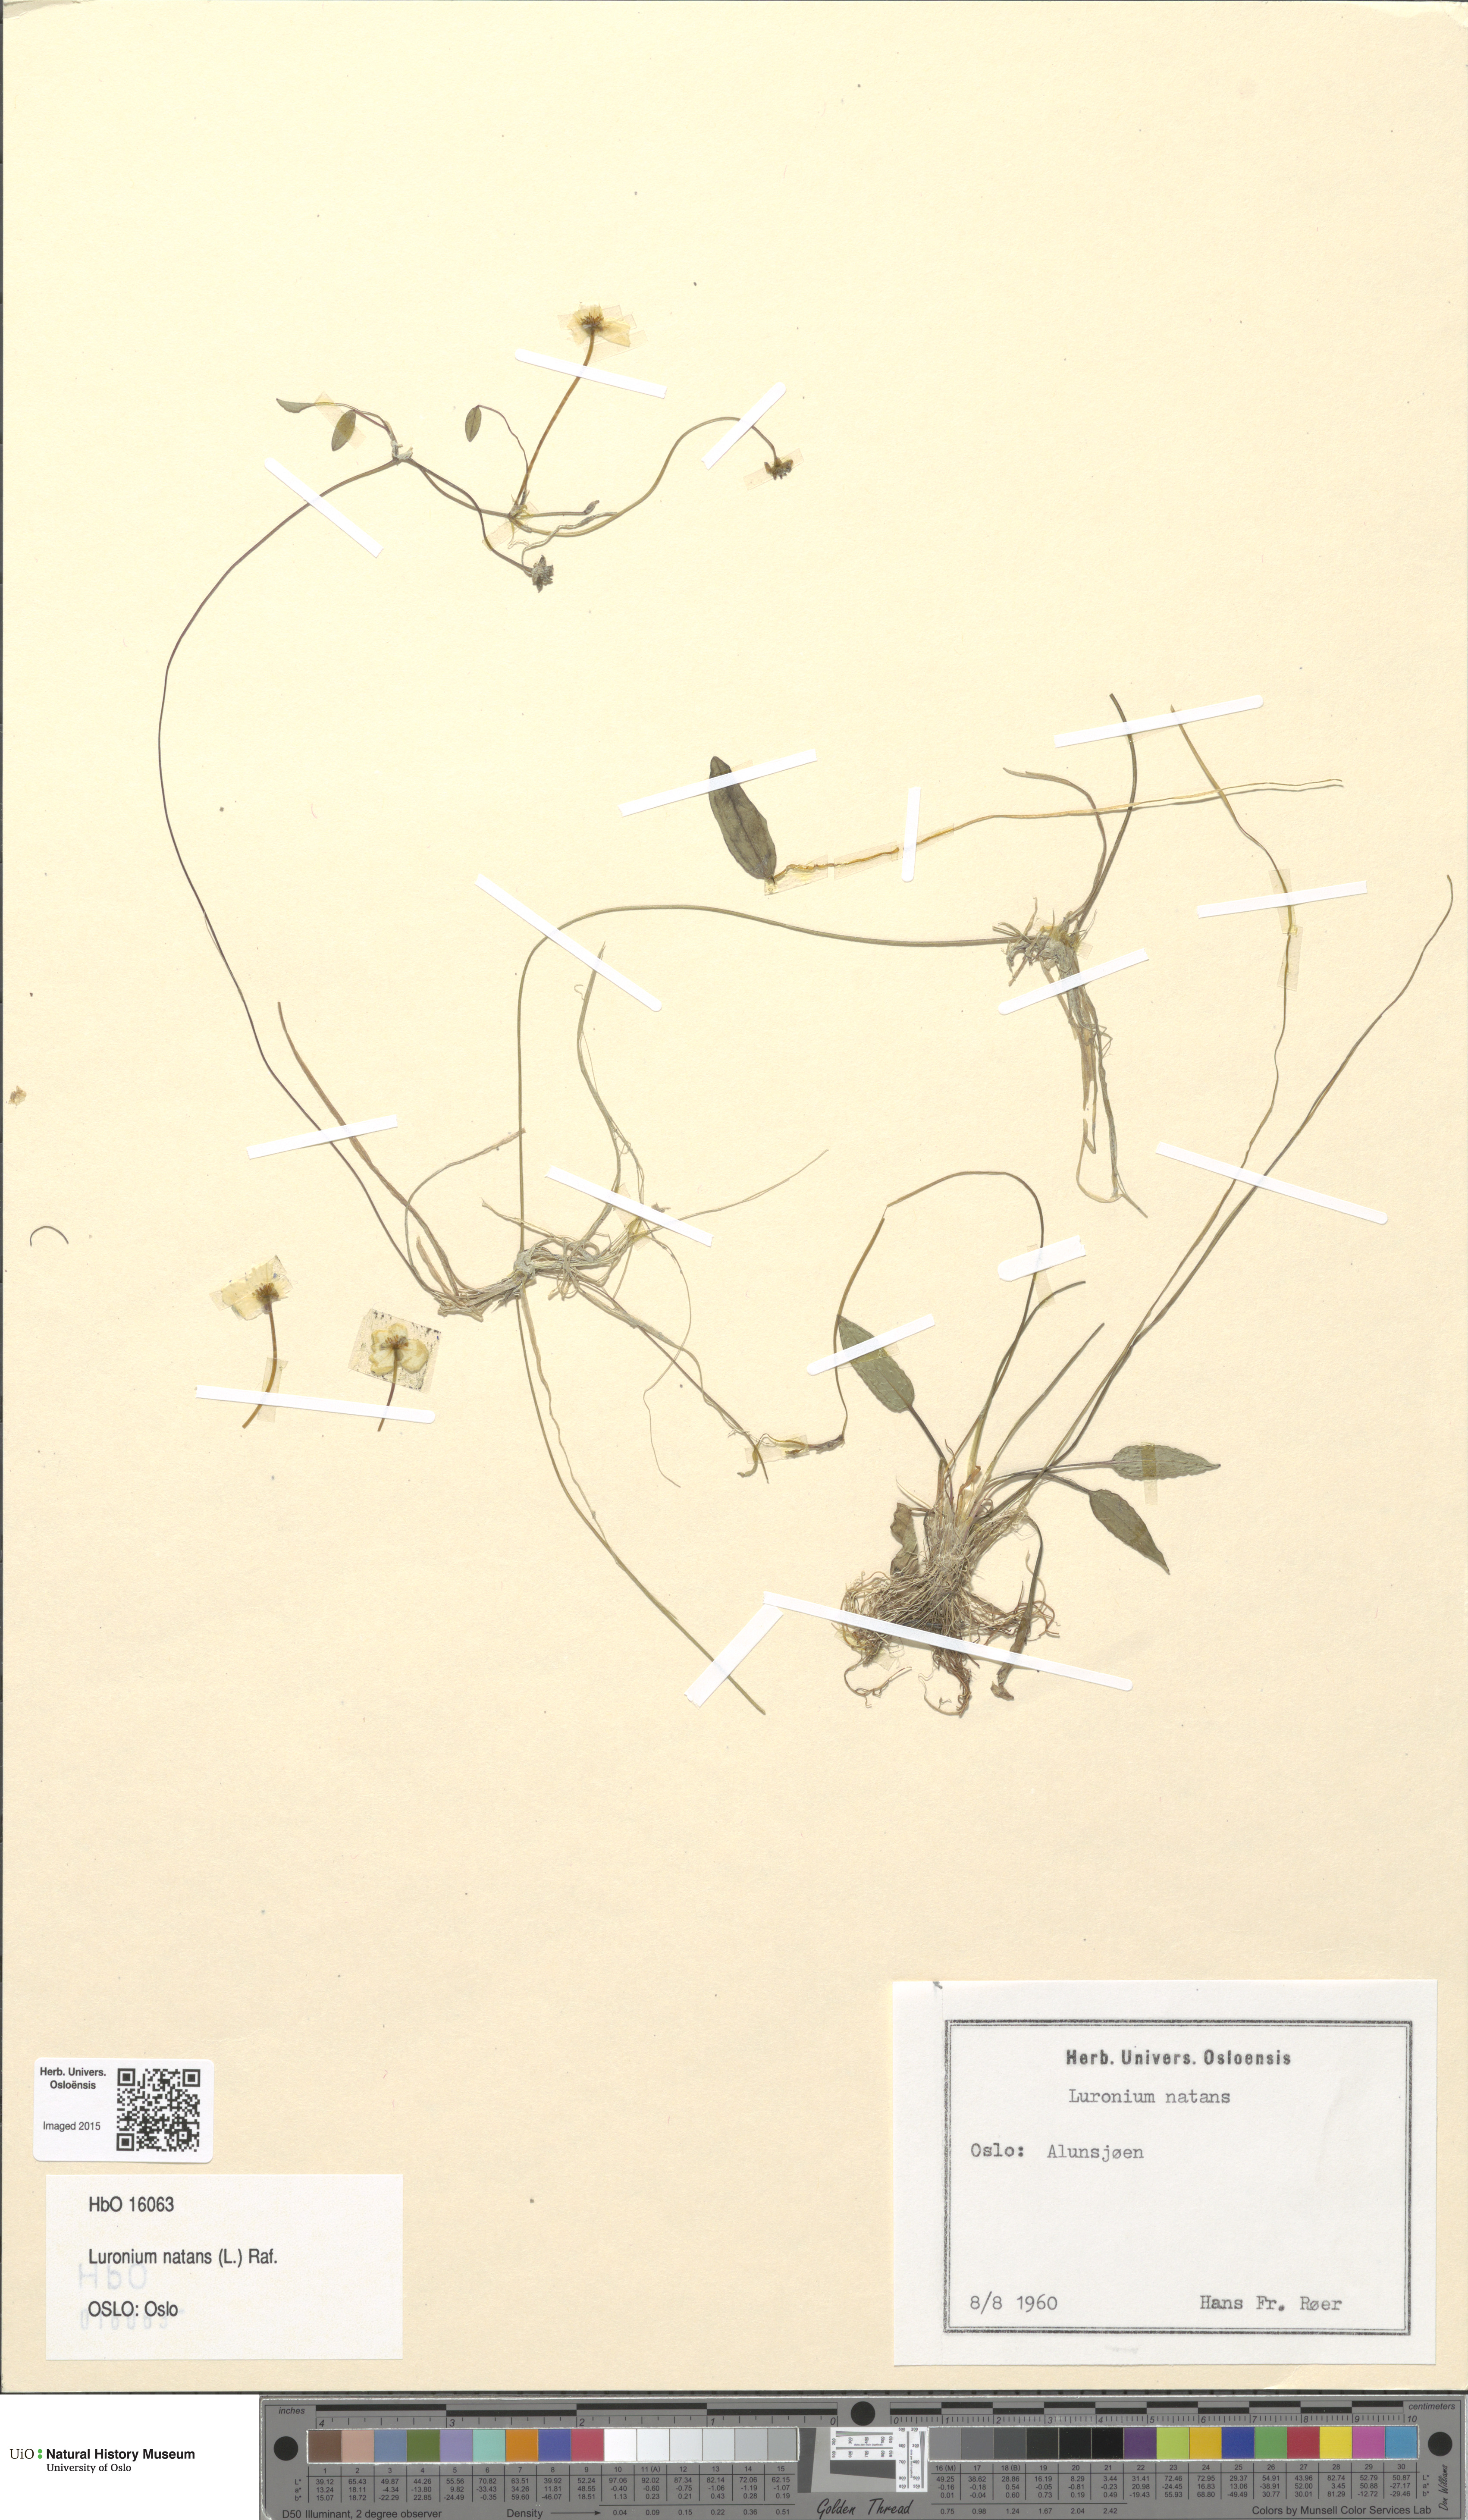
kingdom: Plantae
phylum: Tracheophyta
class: Liliopsida
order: Alismatales
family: Alismataceae
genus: Luronium
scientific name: Luronium natans
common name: Floating water-plantain
